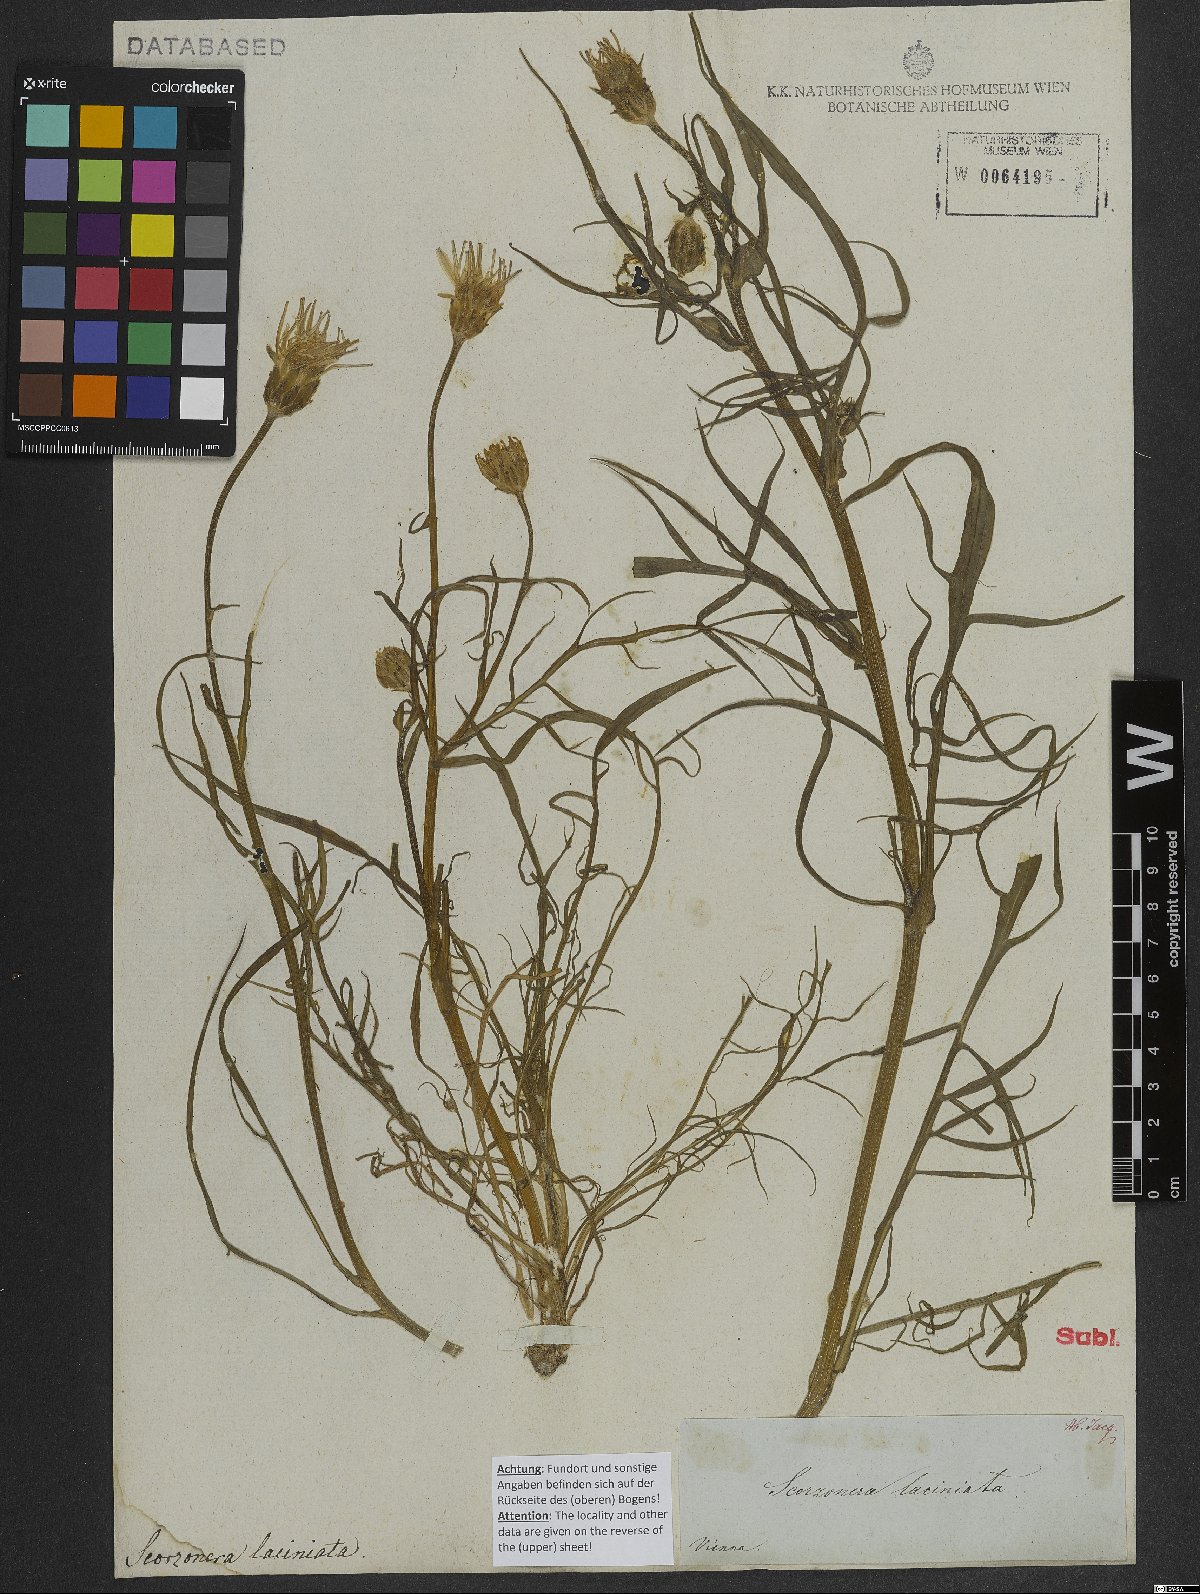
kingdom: Plantae
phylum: Tracheophyta
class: Magnoliopsida
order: Asterales
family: Asteraceae
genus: Scorzonera
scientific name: Scorzonera cana
